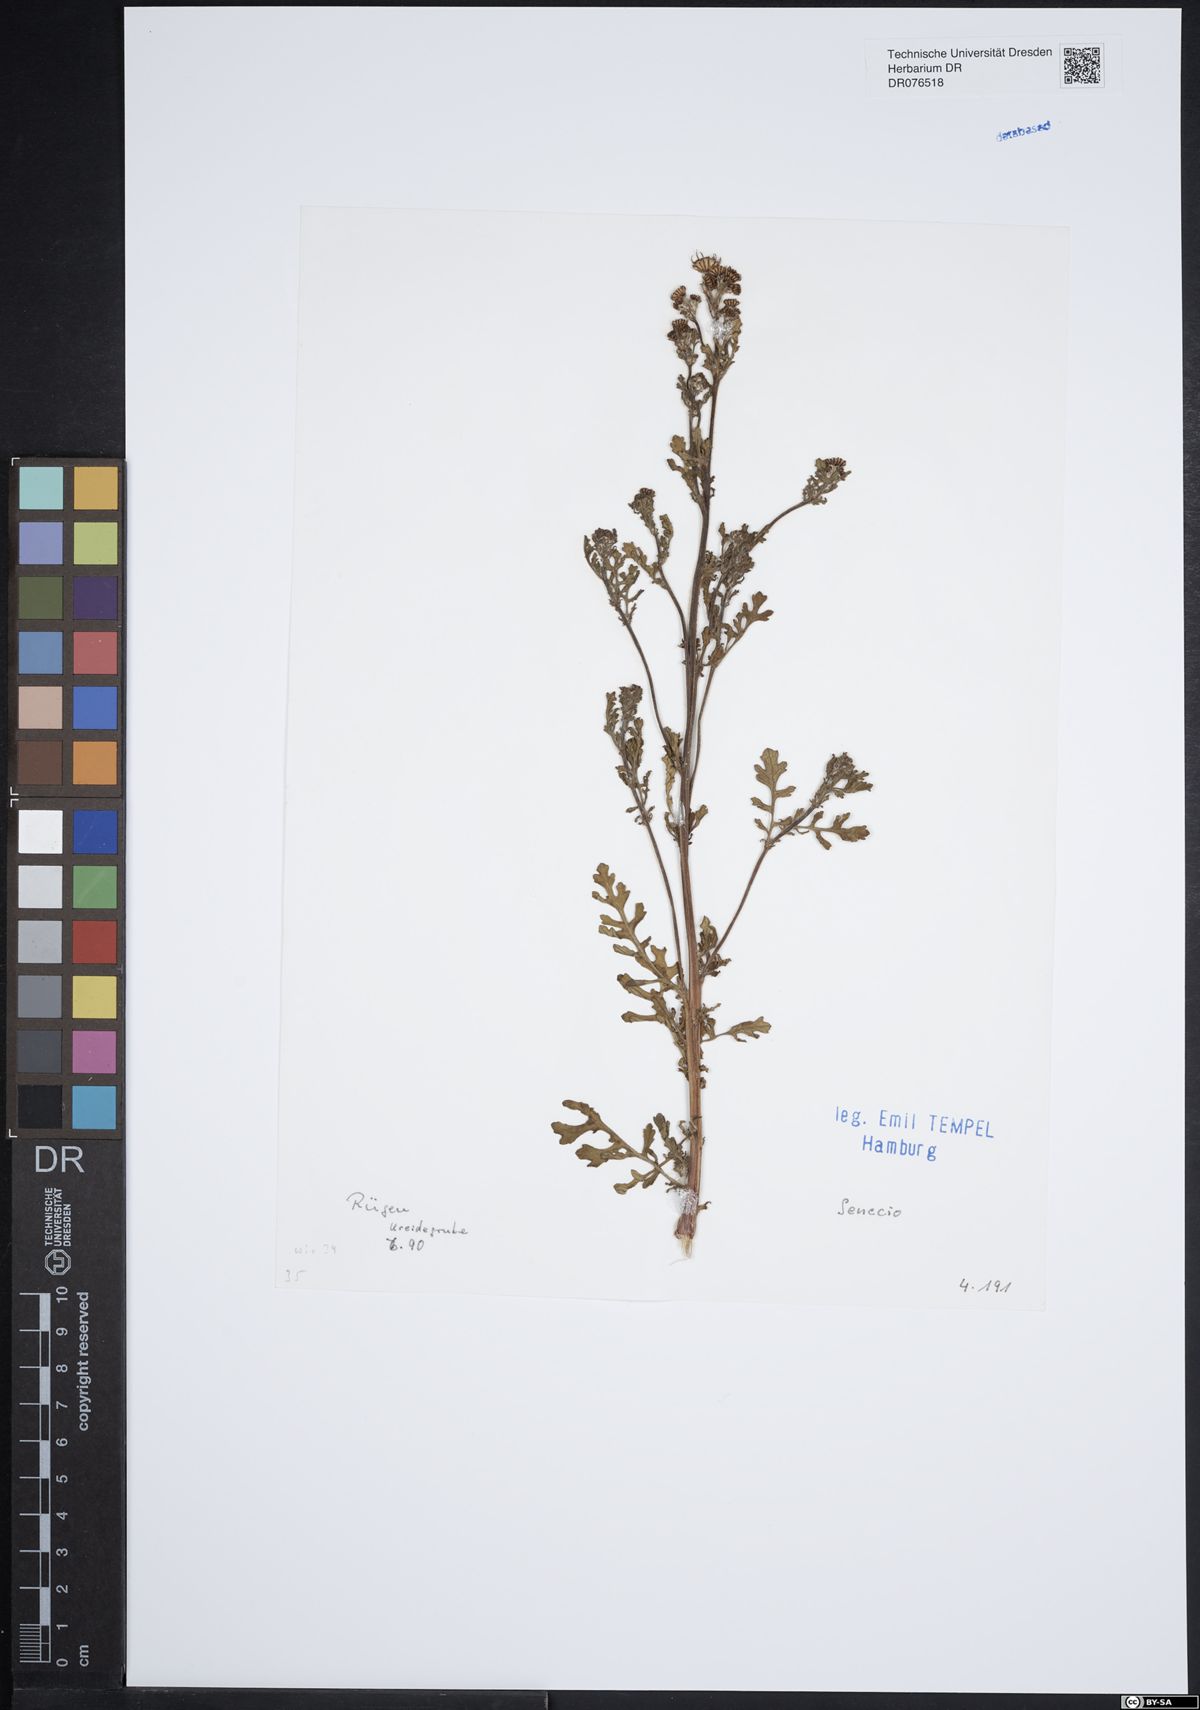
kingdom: Plantae
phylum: Tracheophyta
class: Magnoliopsida
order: Asterales
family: Asteraceae
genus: Senecio
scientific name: Senecio
